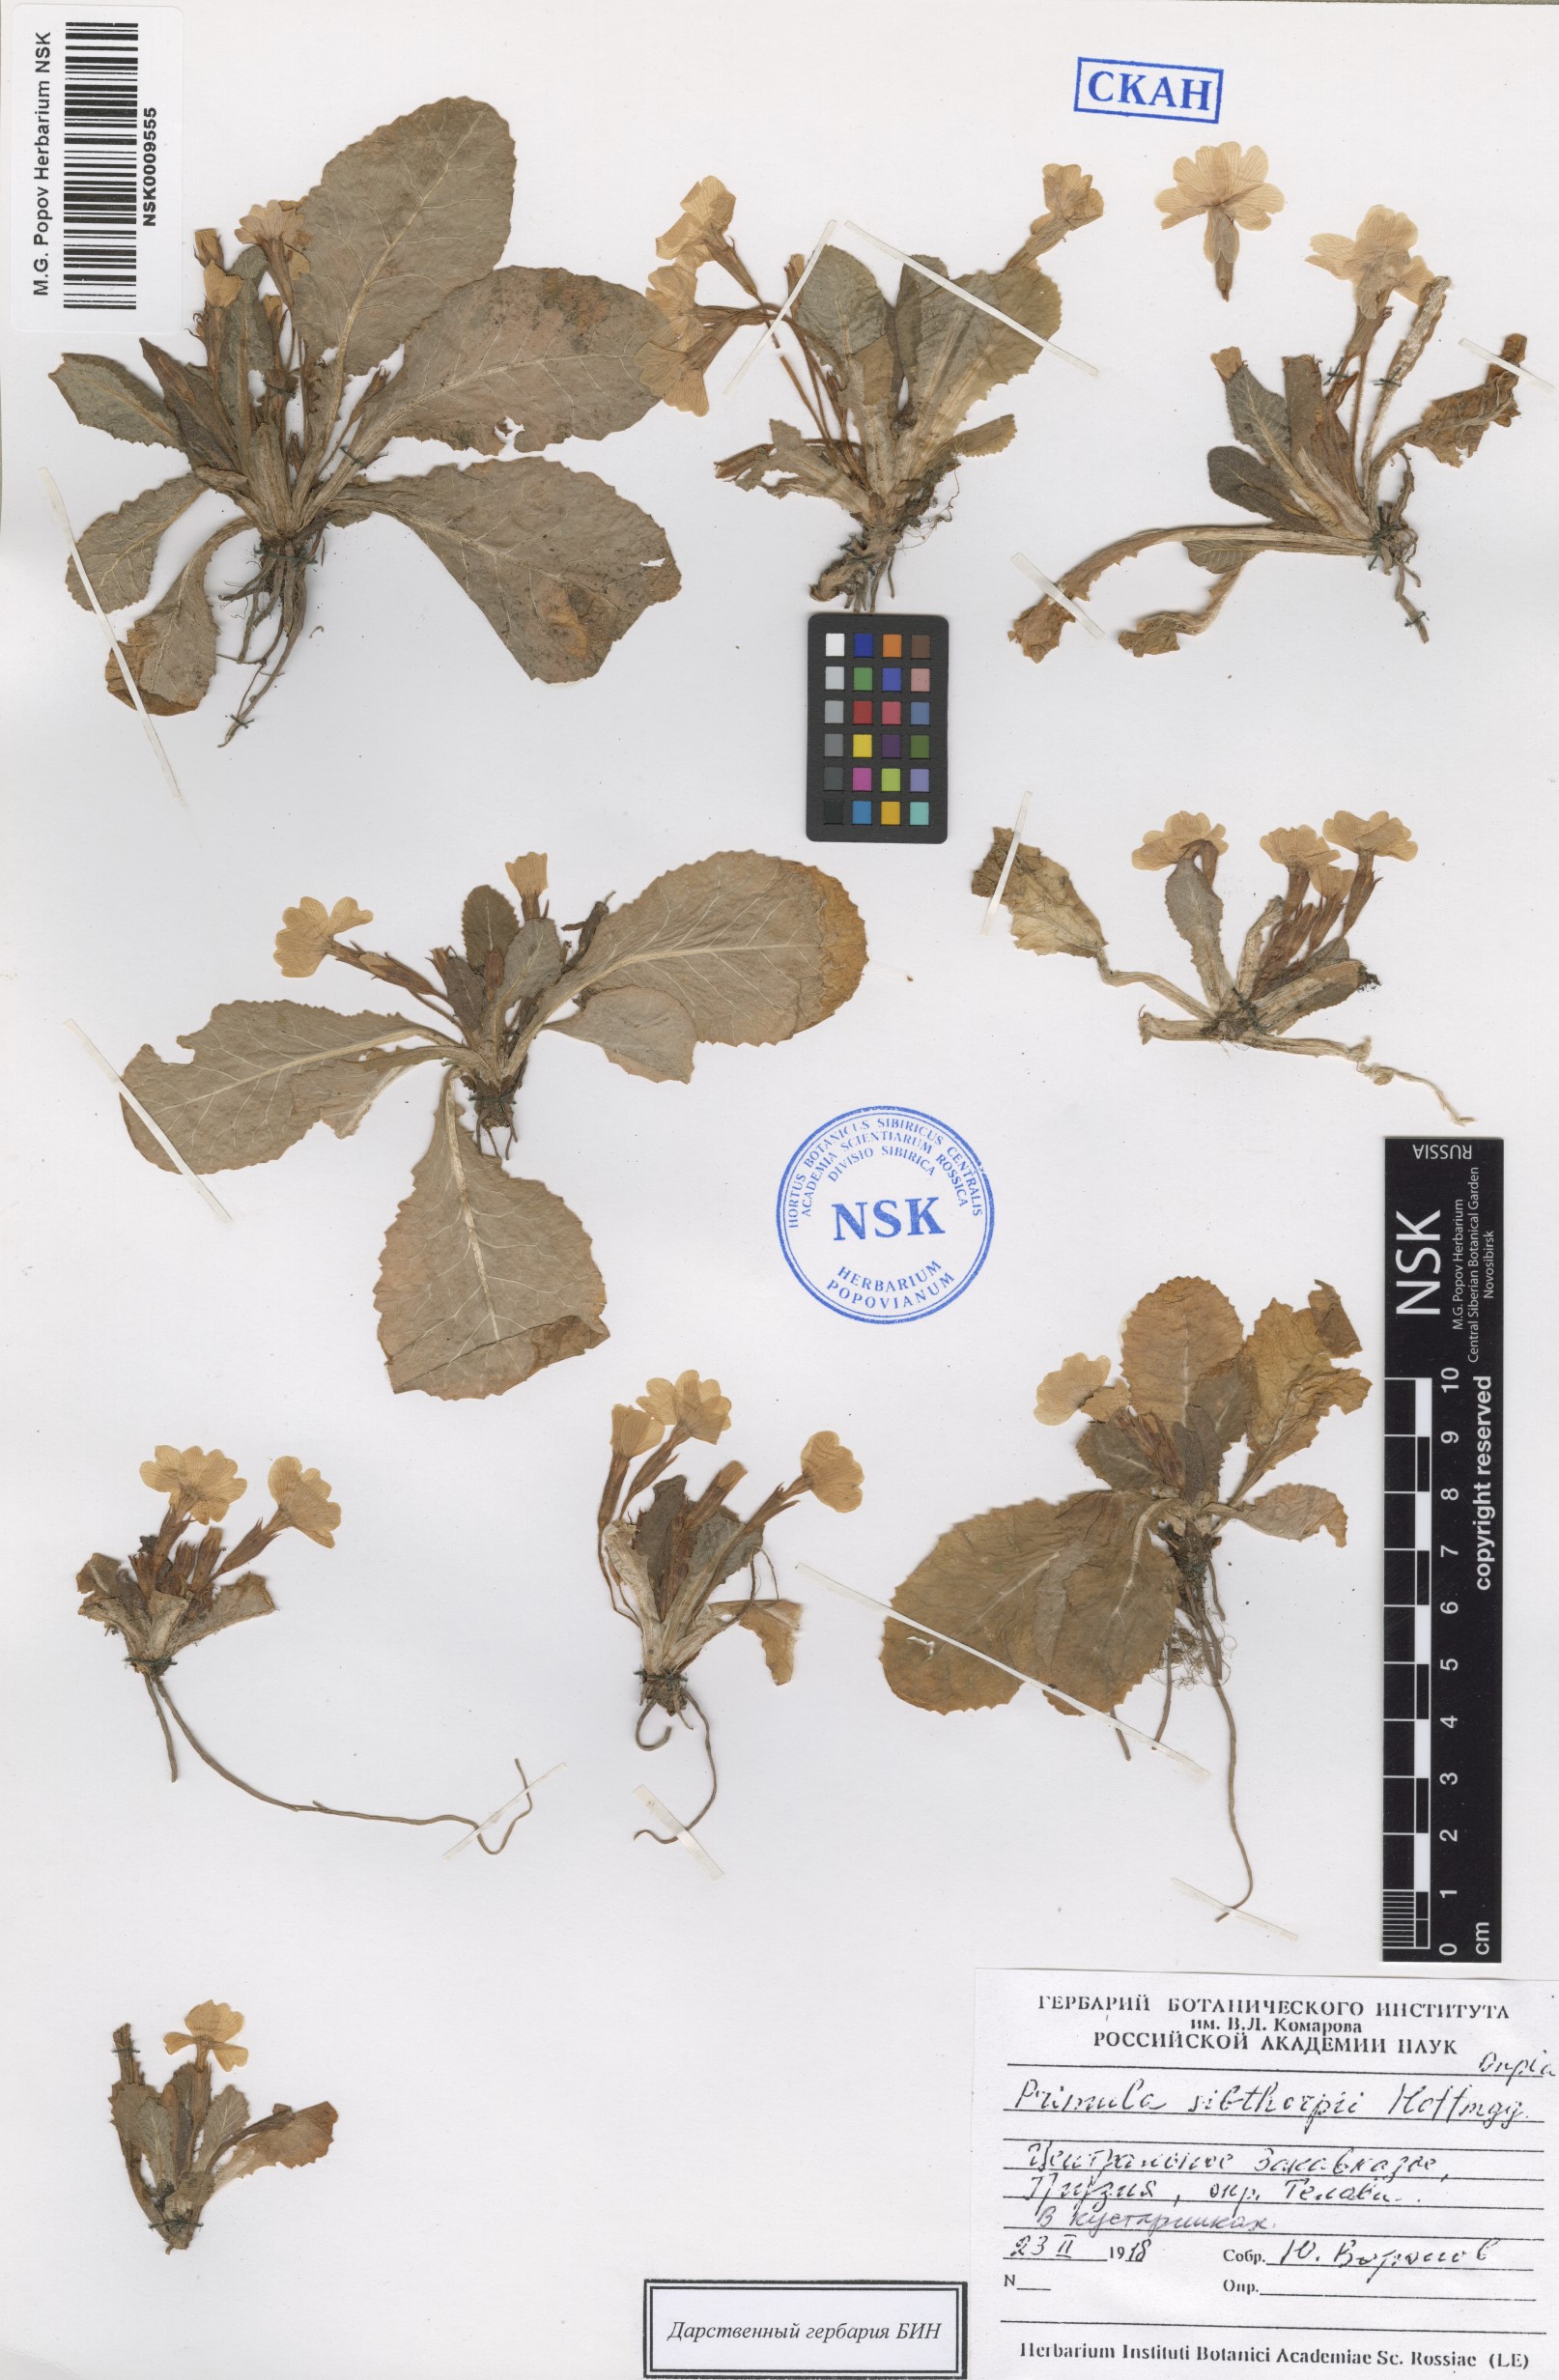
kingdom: Plantae
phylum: Tracheophyta
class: Magnoliopsida
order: Ericales
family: Primulaceae
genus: Primula
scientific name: Primula vulgaris
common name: Primrose
